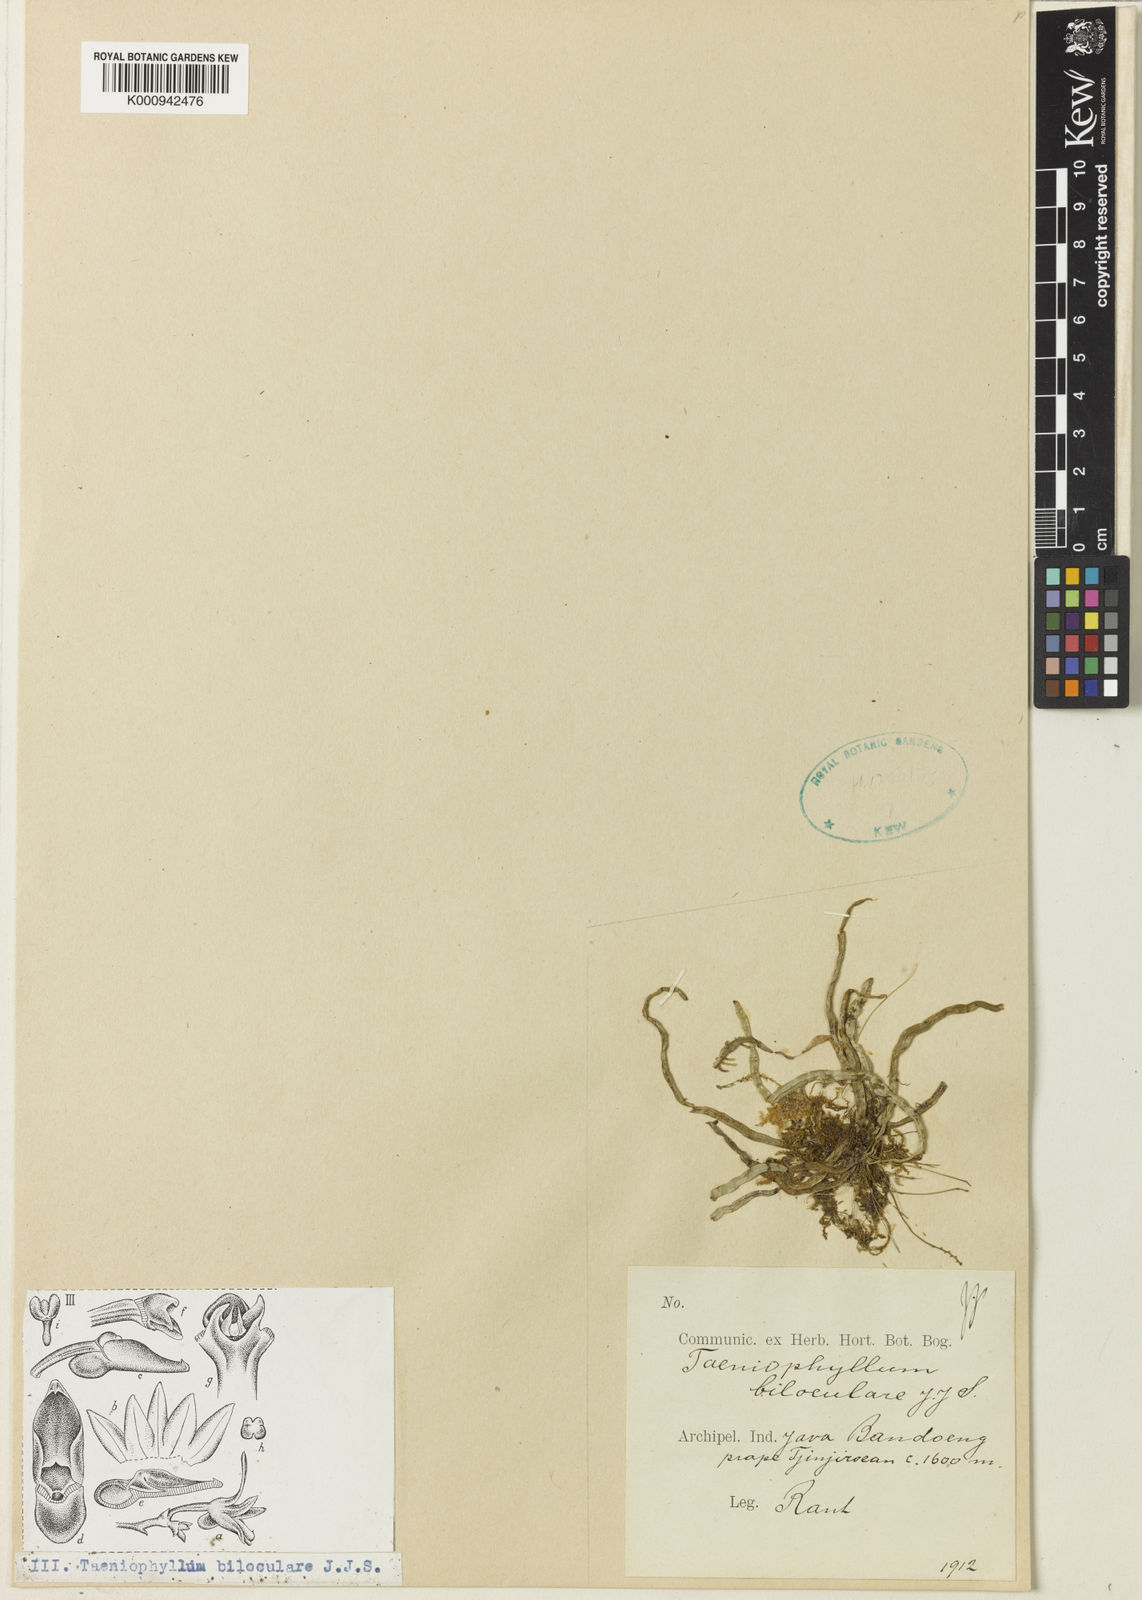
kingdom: Plantae
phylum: Tracheophyta
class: Liliopsida
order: Asparagales
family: Orchidaceae
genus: Taeniophyllum
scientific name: Taeniophyllum biloculare
